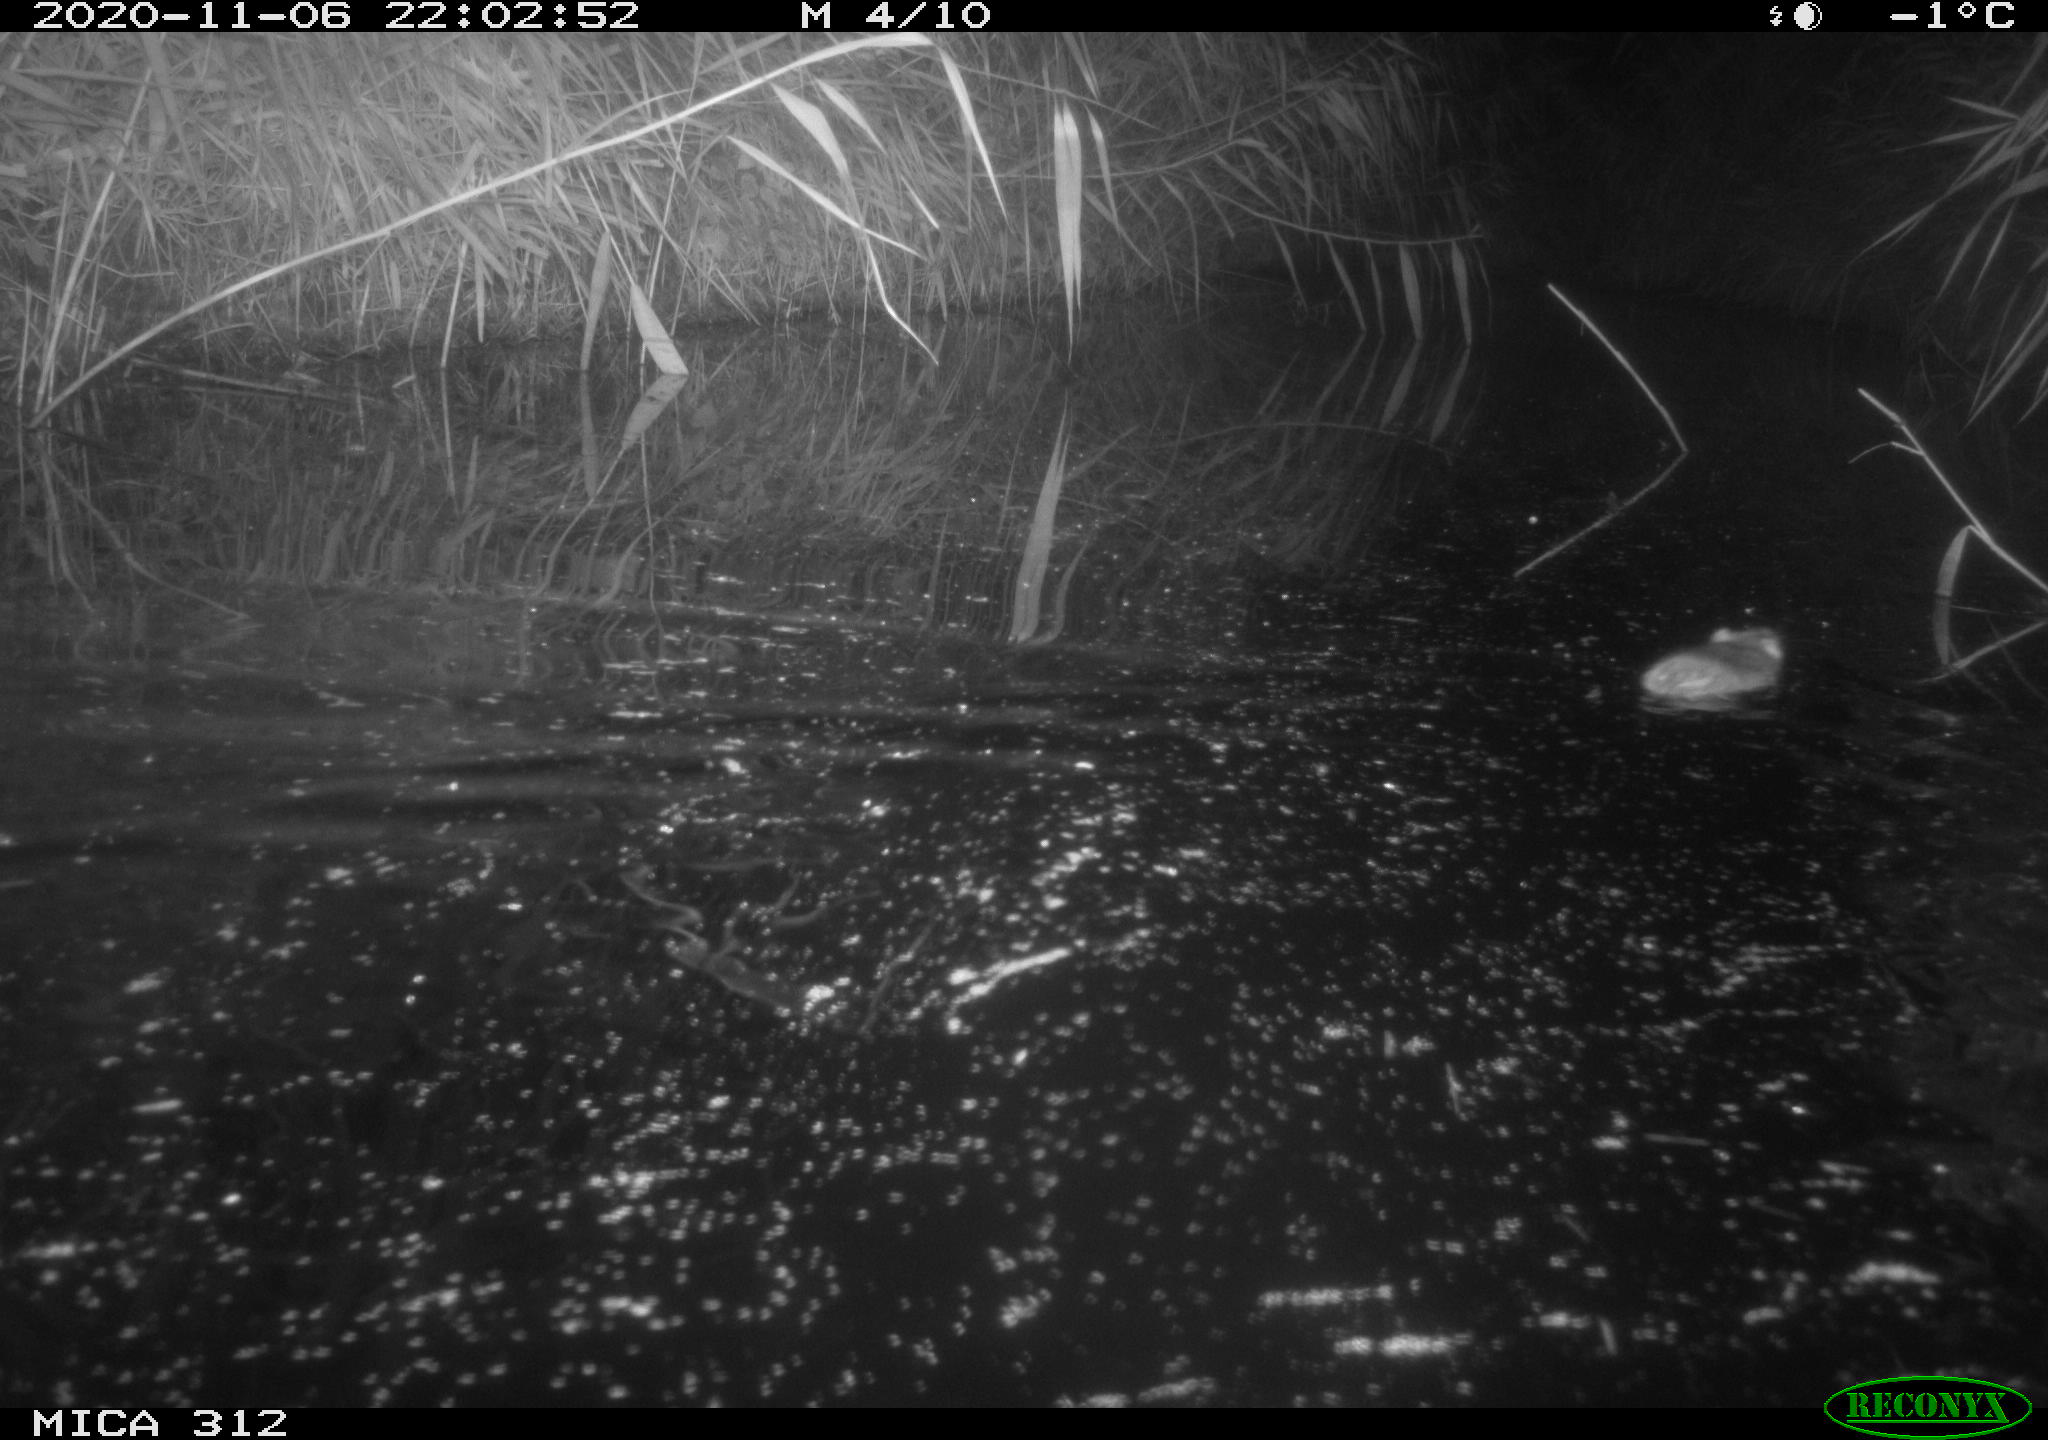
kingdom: Animalia
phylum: Chordata
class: Mammalia
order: Rodentia
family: Muridae
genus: Rattus
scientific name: Rattus norvegicus
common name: Brown rat
